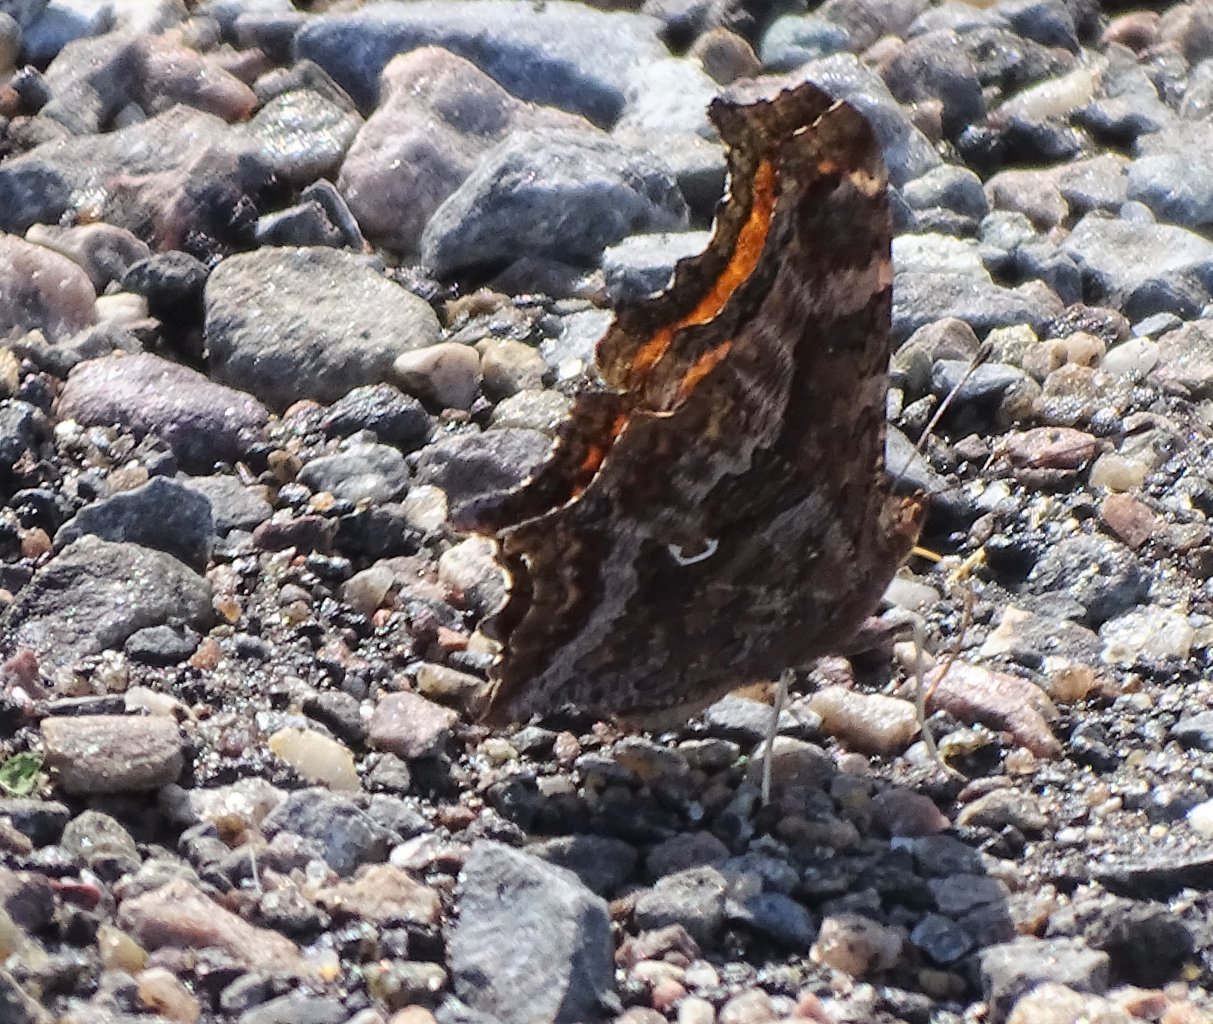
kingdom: Animalia
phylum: Arthropoda
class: Insecta
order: Lepidoptera
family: Nymphalidae
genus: Polygonia
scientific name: Polygonia comma
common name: Eastern Comma
